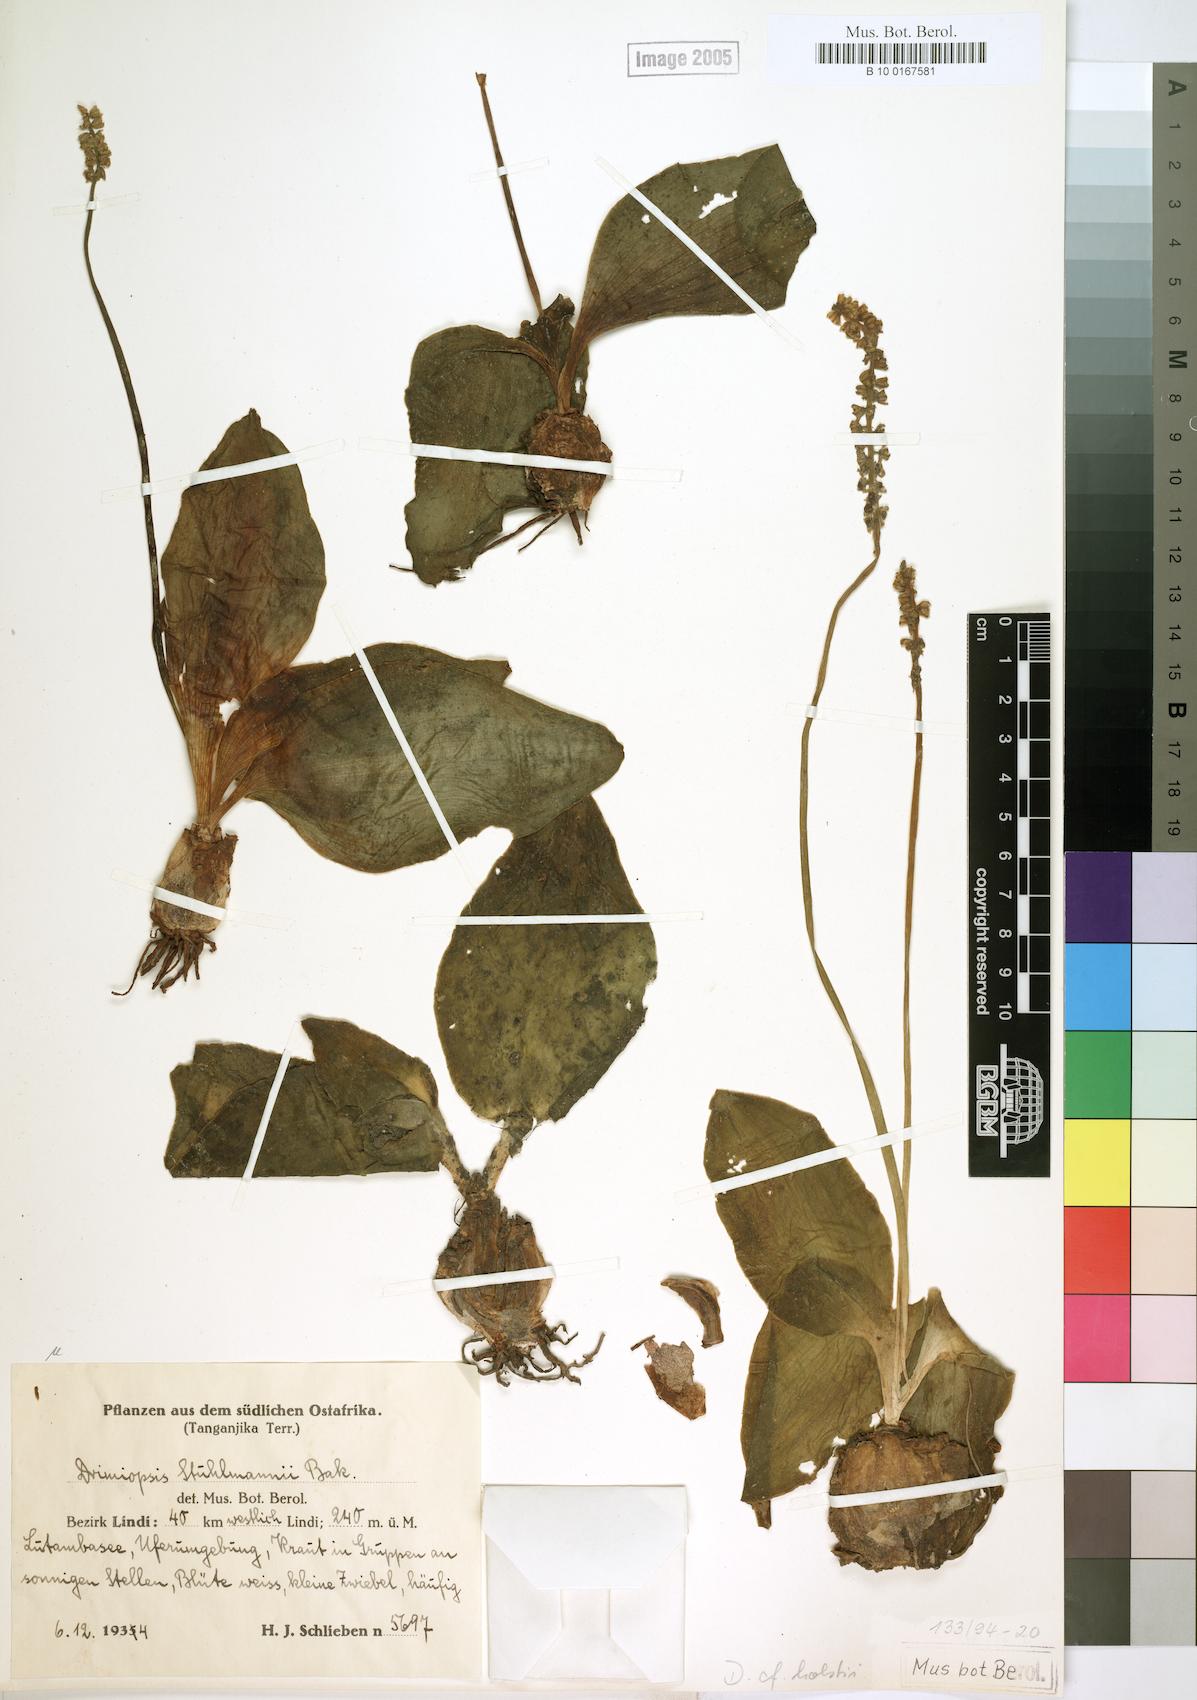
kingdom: Plantae
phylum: Tracheophyta
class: Liliopsida
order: Asparagales
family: Asparagaceae
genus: Drimiopsis
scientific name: Drimiopsis botryoides
